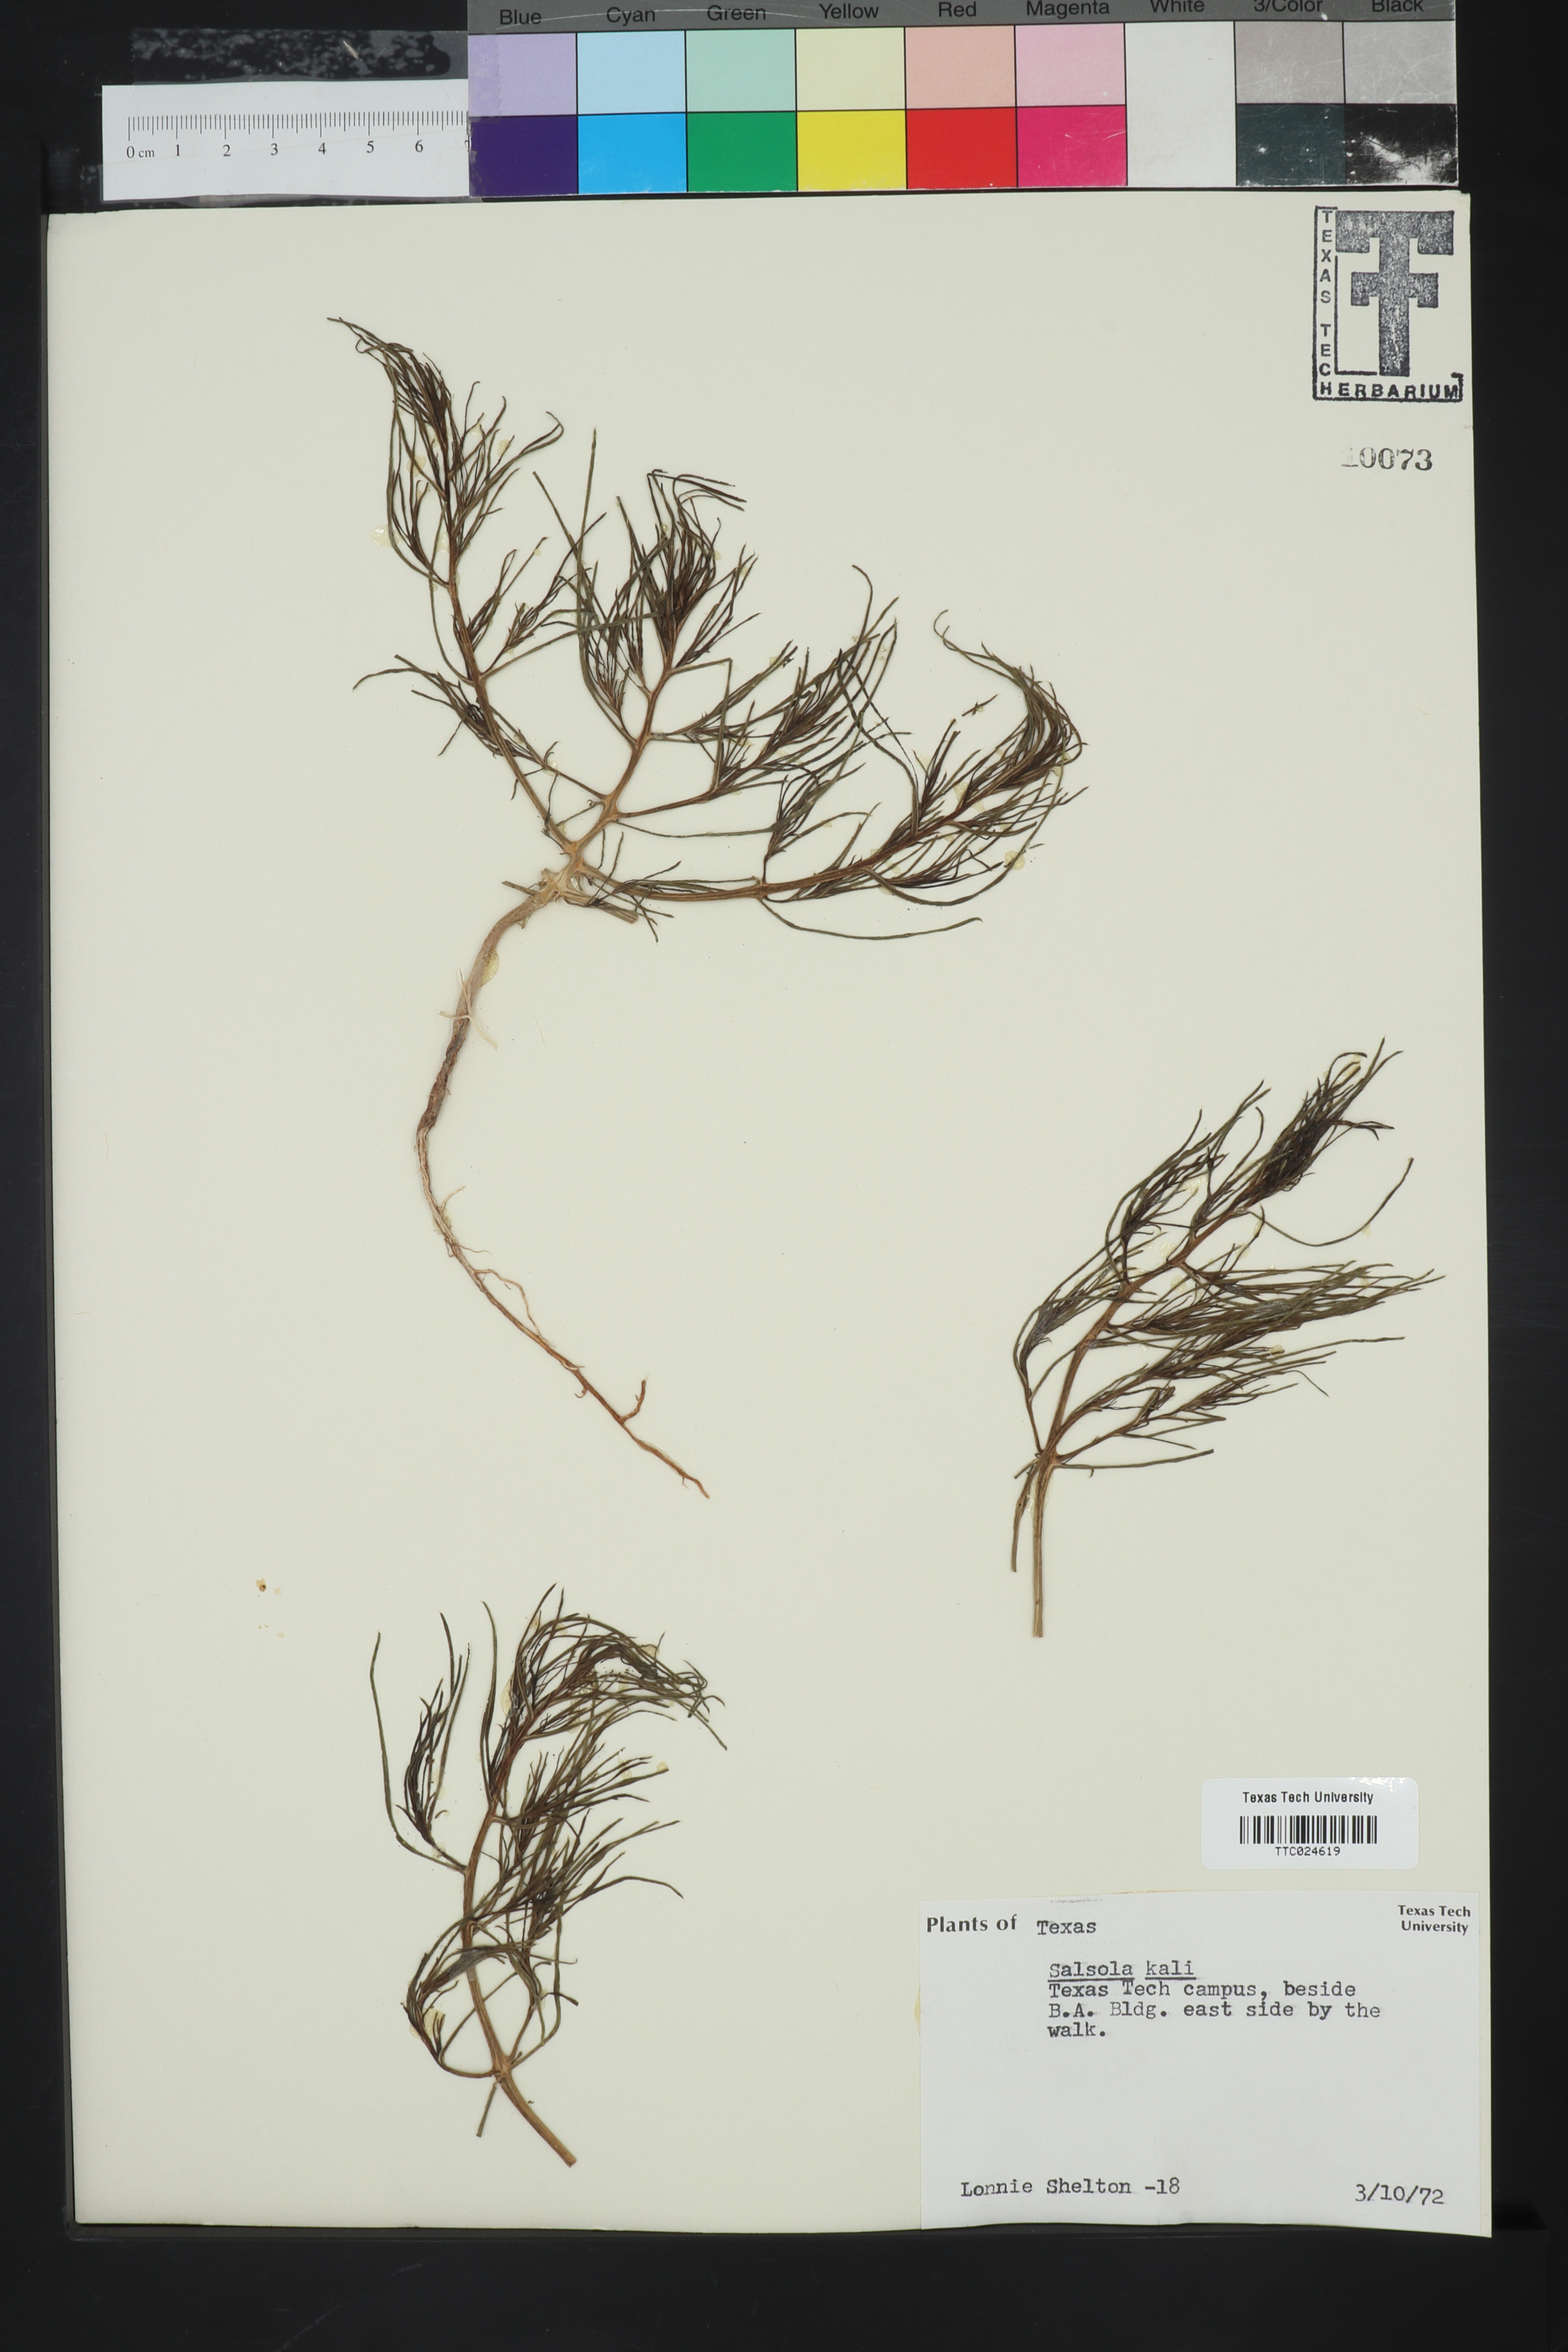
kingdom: Plantae
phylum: Tracheophyta
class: Magnoliopsida
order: Caryophyllales
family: Amaranthaceae
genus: Salsola
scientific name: Salsola kali
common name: Saltwort
